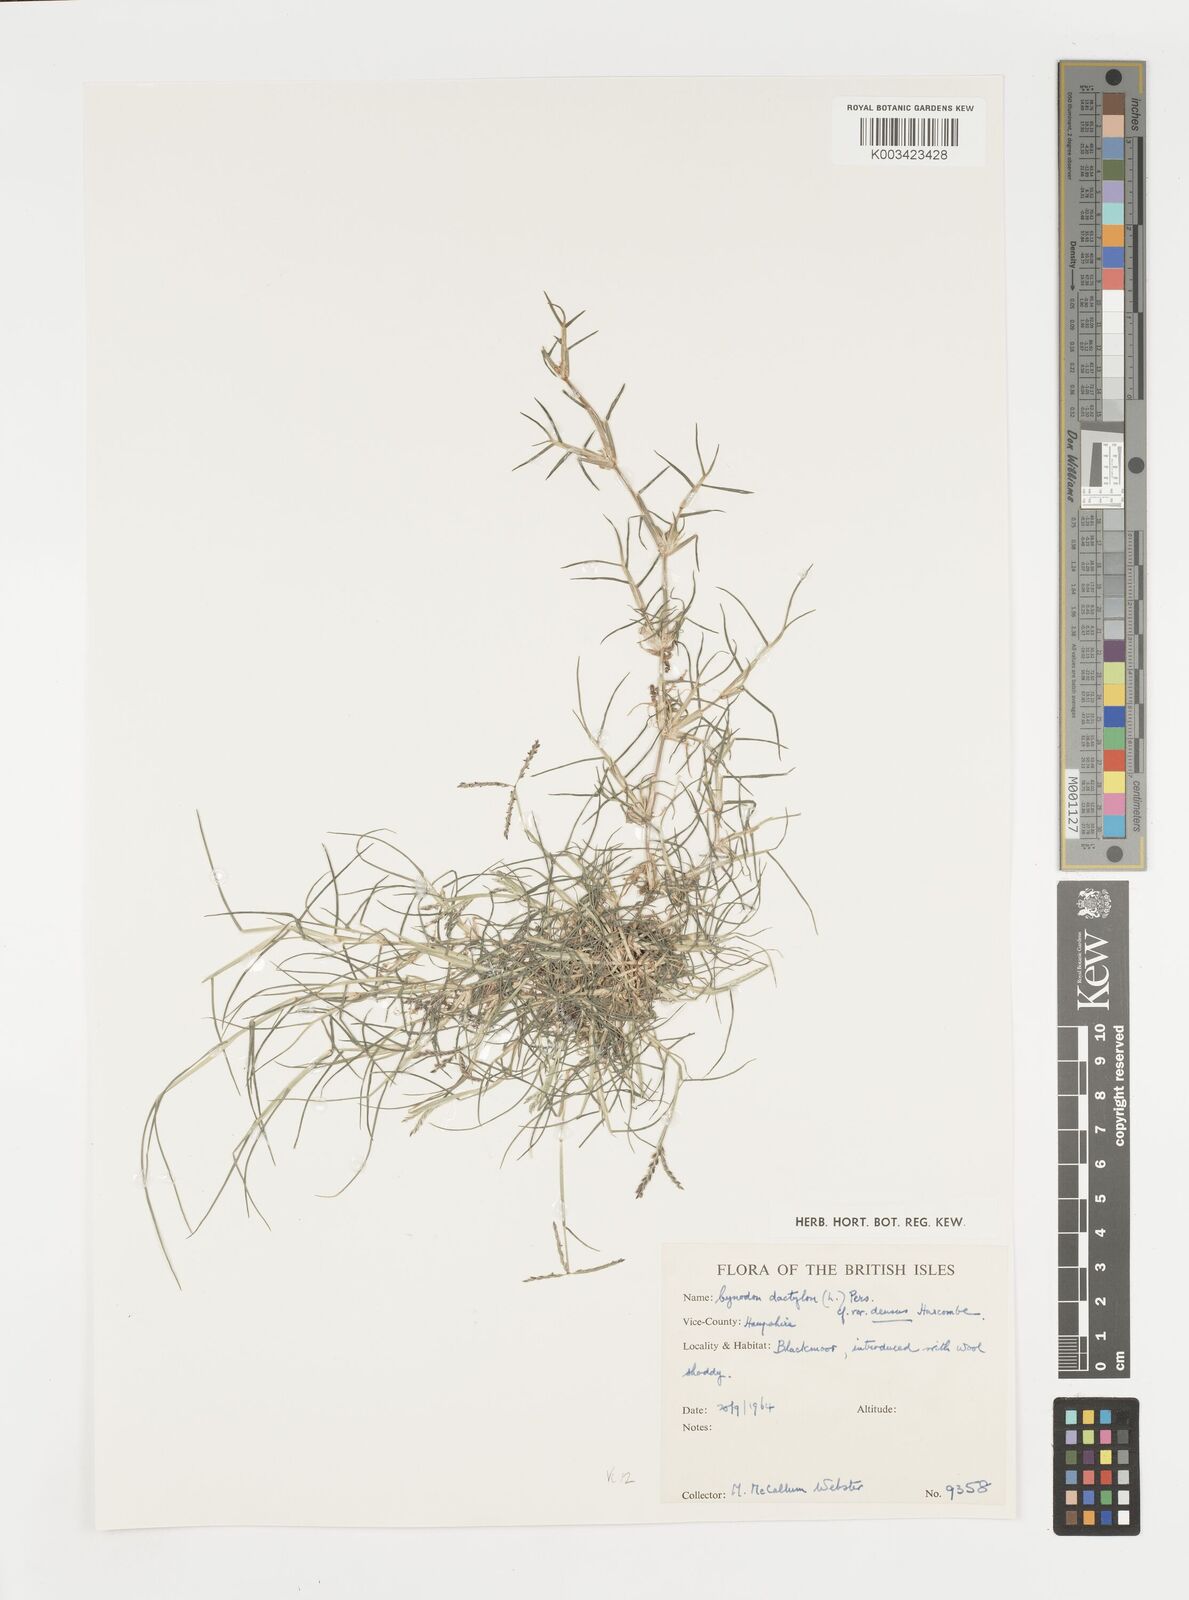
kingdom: Plantae
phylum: Tracheophyta
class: Liliopsida
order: Poales
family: Poaceae
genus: Cynodon
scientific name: Cynodon dactylon
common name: Bermuda grass
